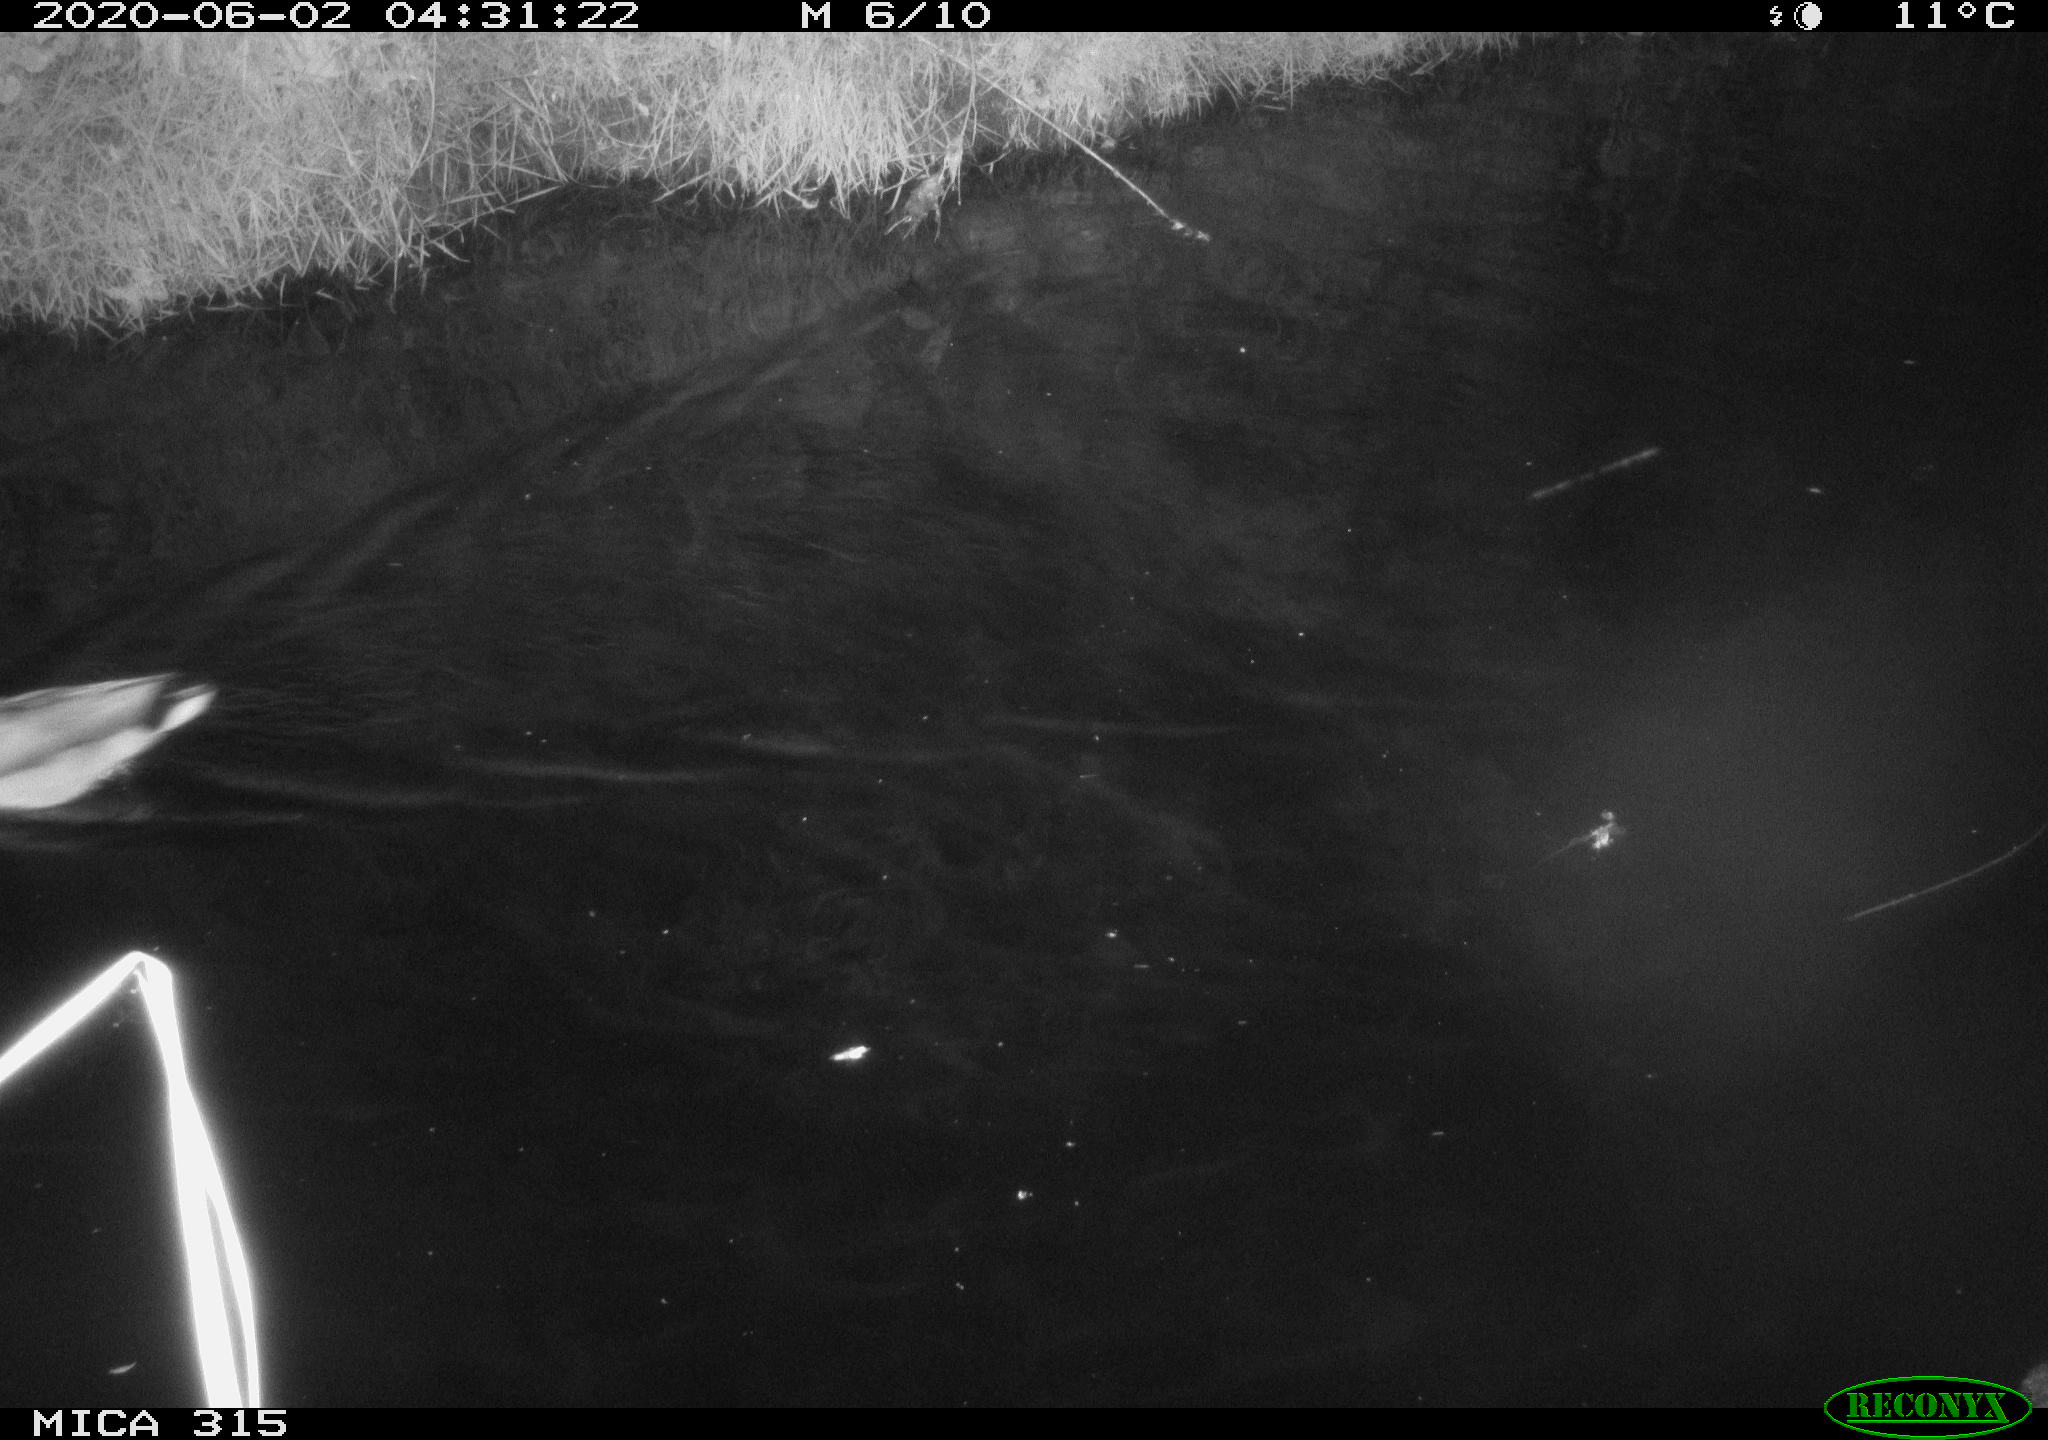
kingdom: Animalia
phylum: Chordata
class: Aves
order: Anseriformes
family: Anatidae
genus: Anas
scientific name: Anas platyrhynchos
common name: Mallard
